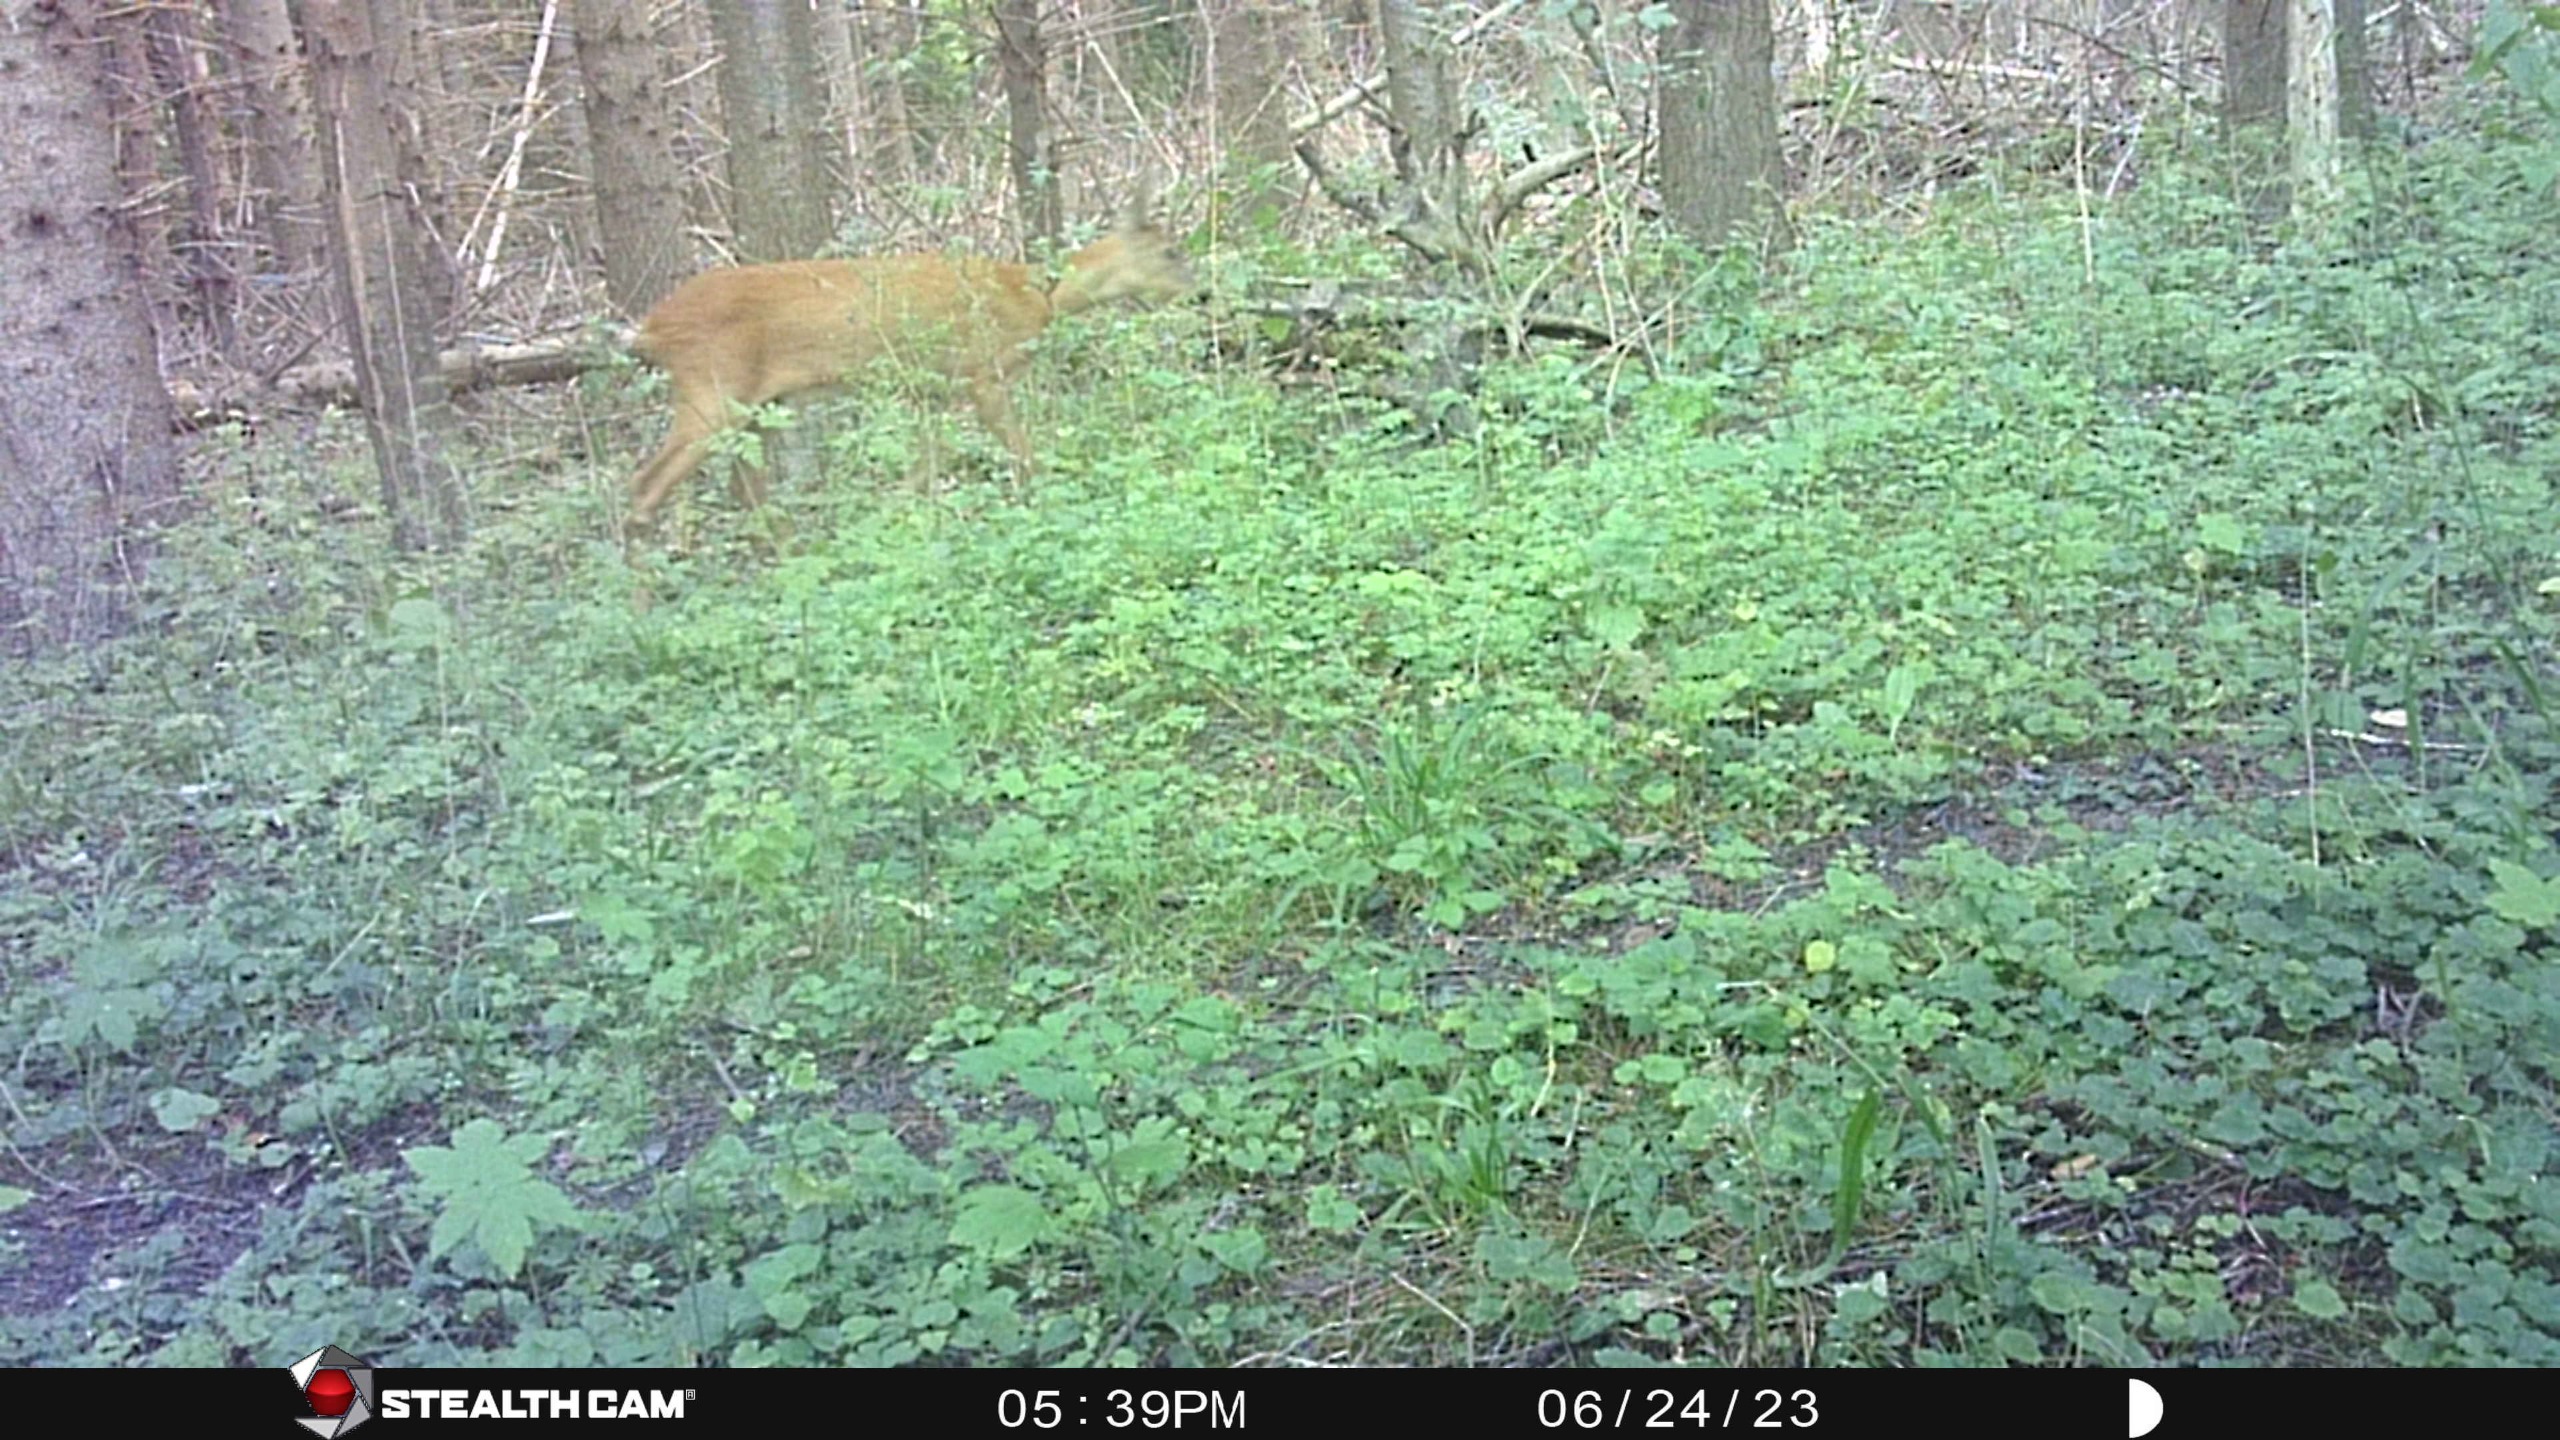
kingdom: Animalia
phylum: Chordata
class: Mammalia
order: Artiodactyla
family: Cervidae
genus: Capreolus
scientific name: Capreolus capreolus
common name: Rådyr
